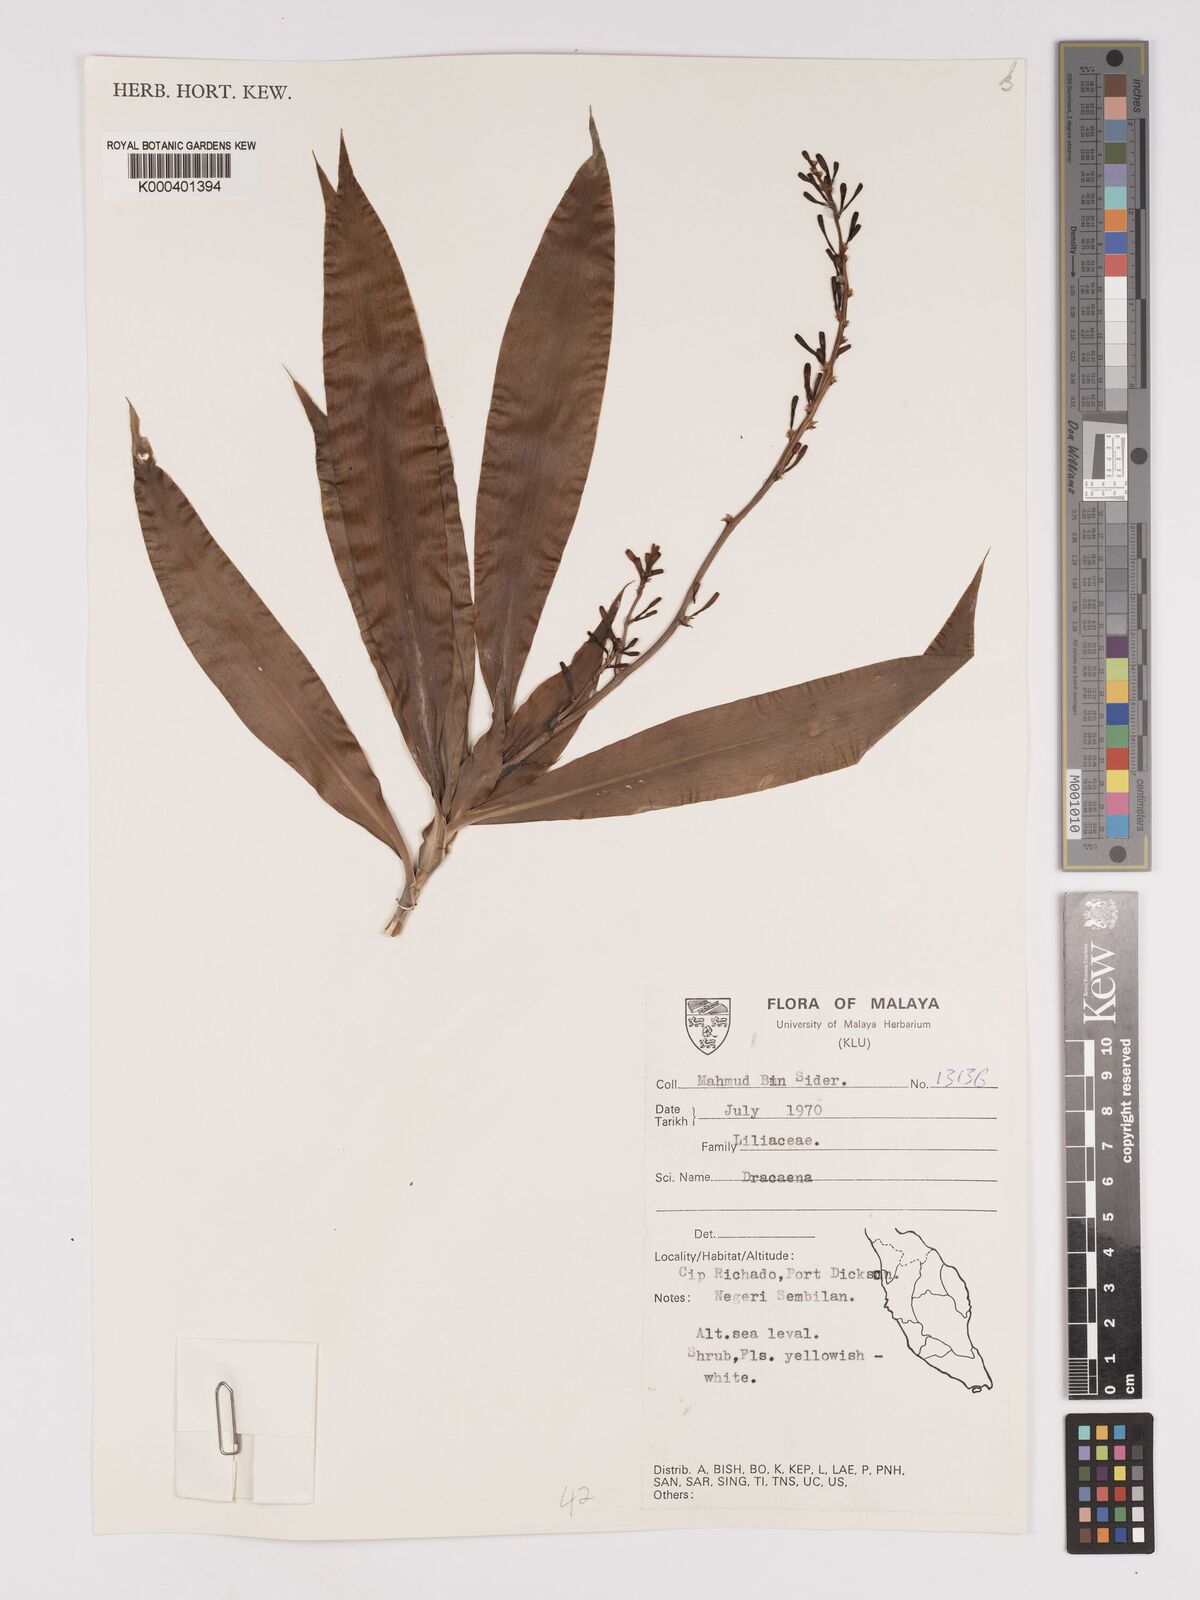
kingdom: Plantae
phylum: Tracheophyta
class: Liliopsida
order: Asparagales
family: Asparagaceae
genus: Dracaena
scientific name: Dracaena
